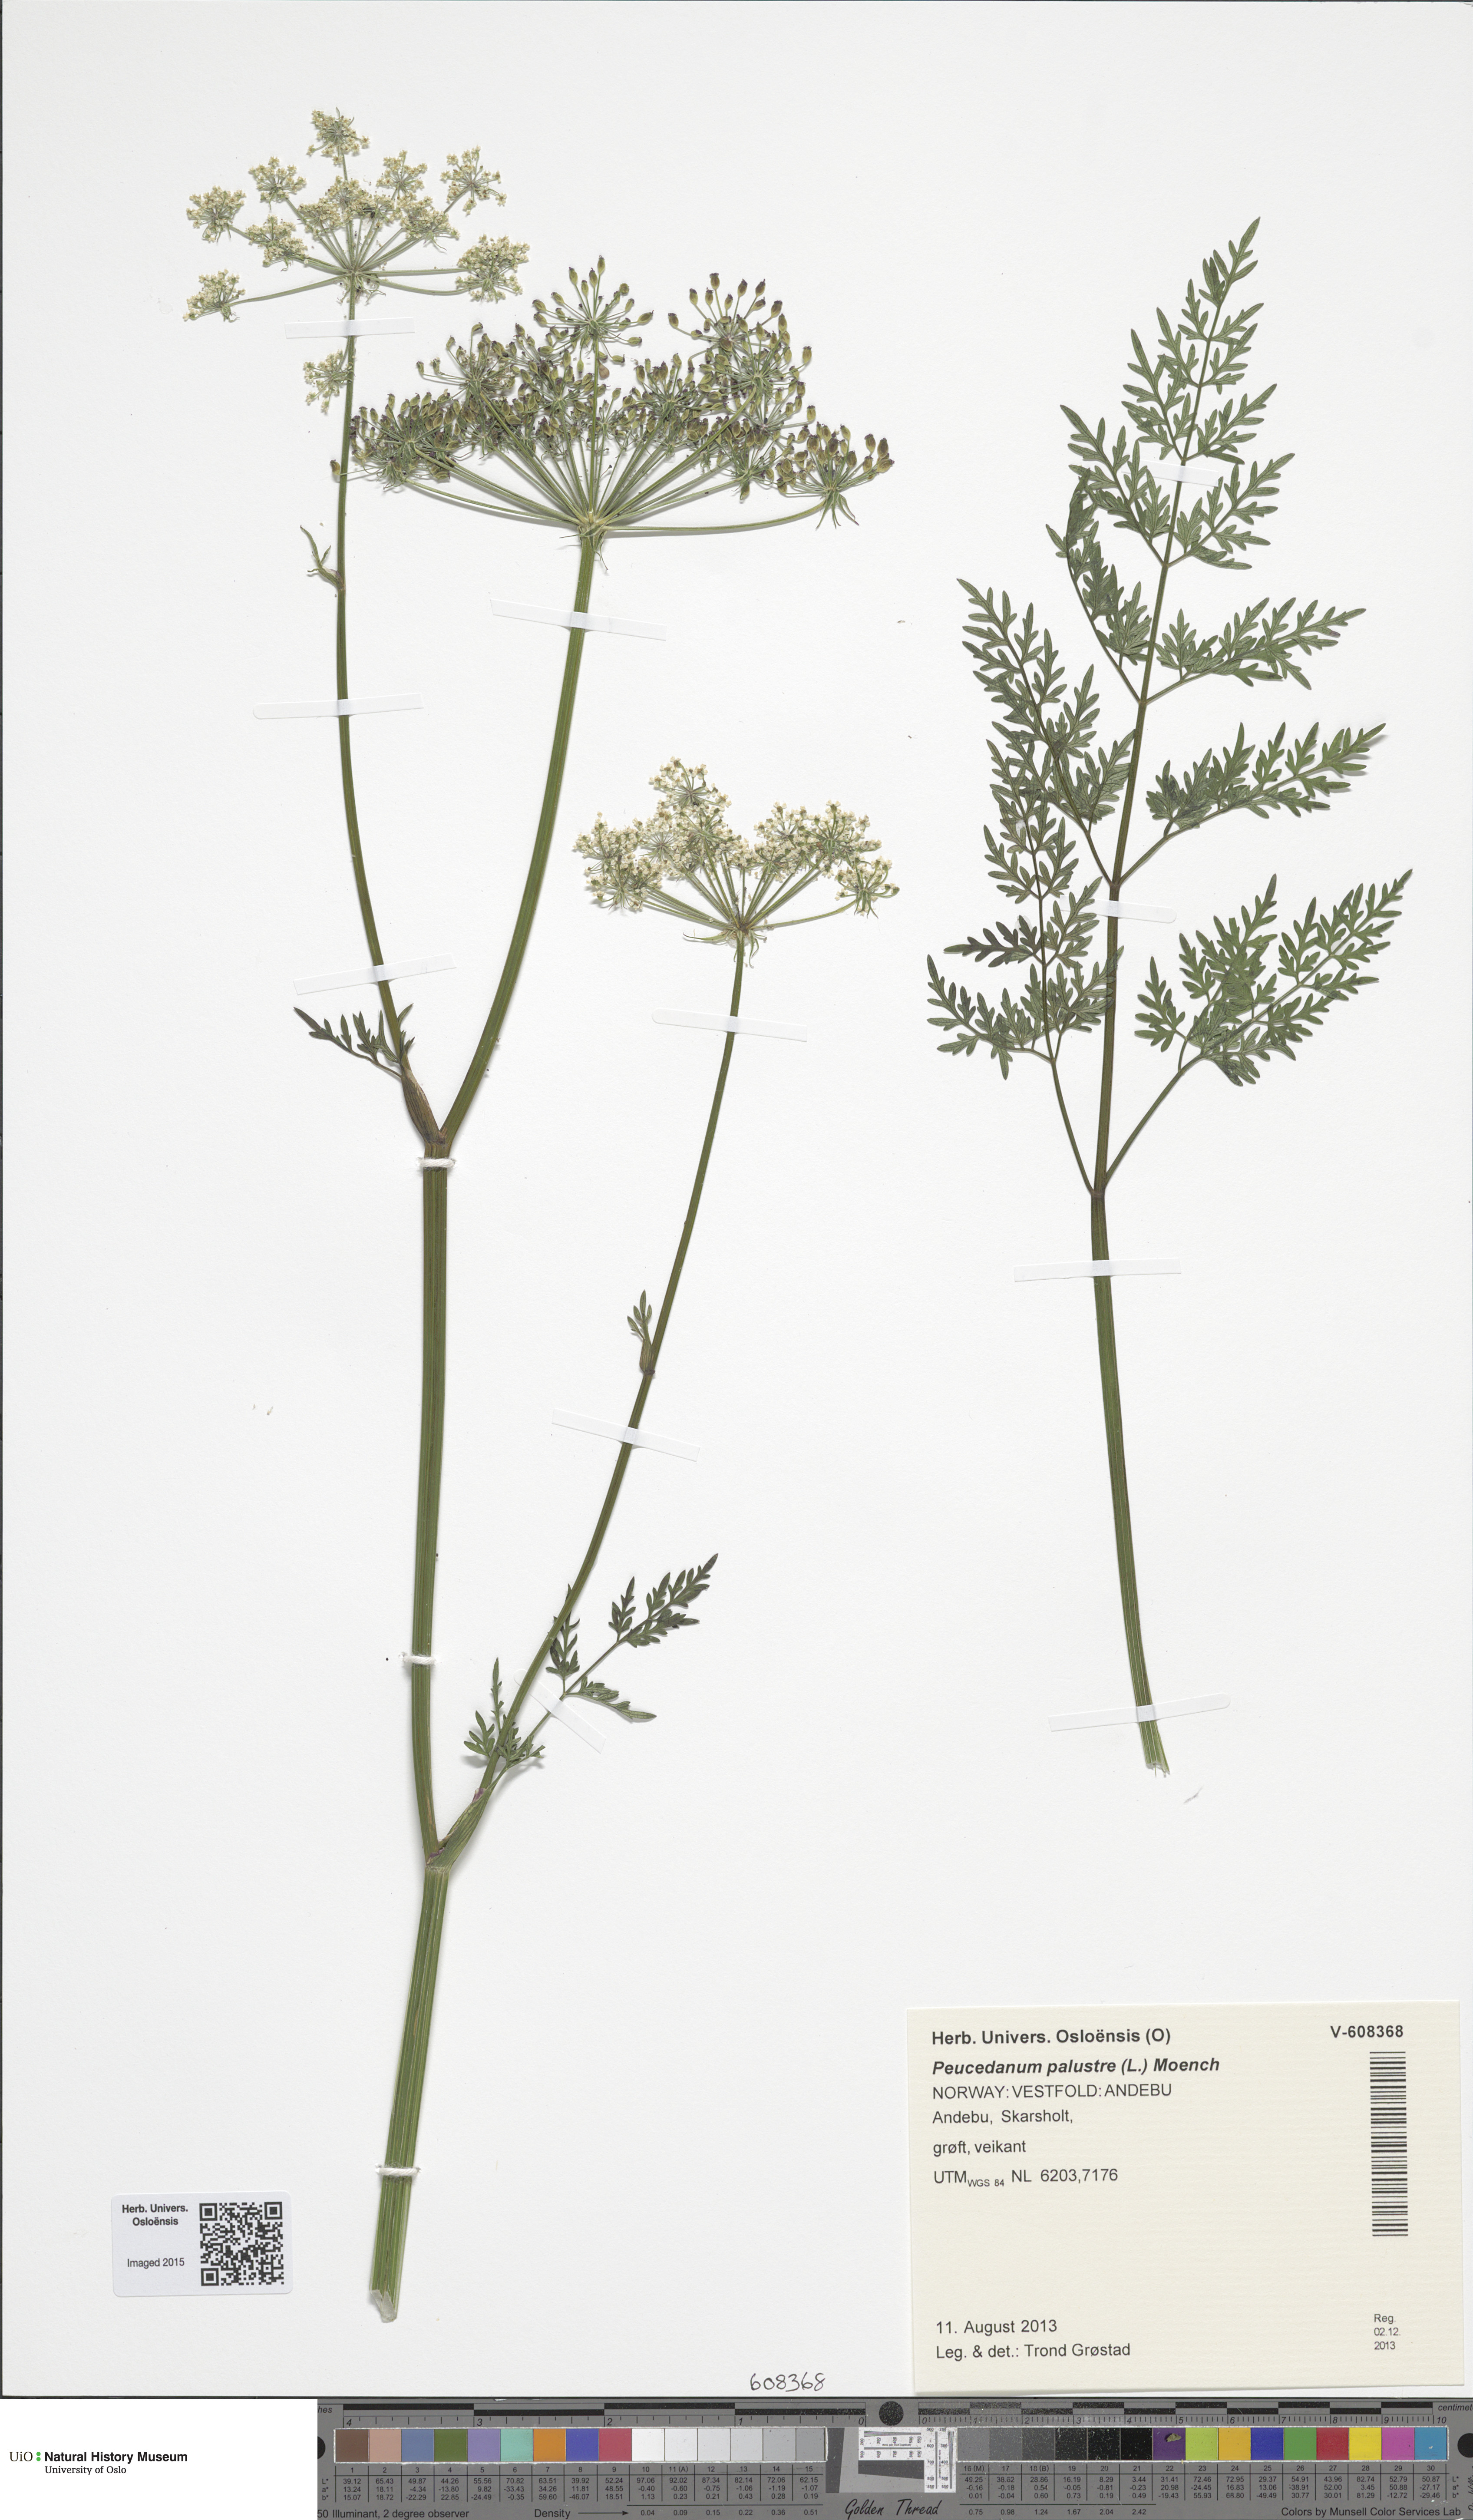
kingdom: Plantae
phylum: Tracheophyta
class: Magnoliopsida
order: Apiales
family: Apiaceae
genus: Thysselinum
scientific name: Thysselinum palustre
